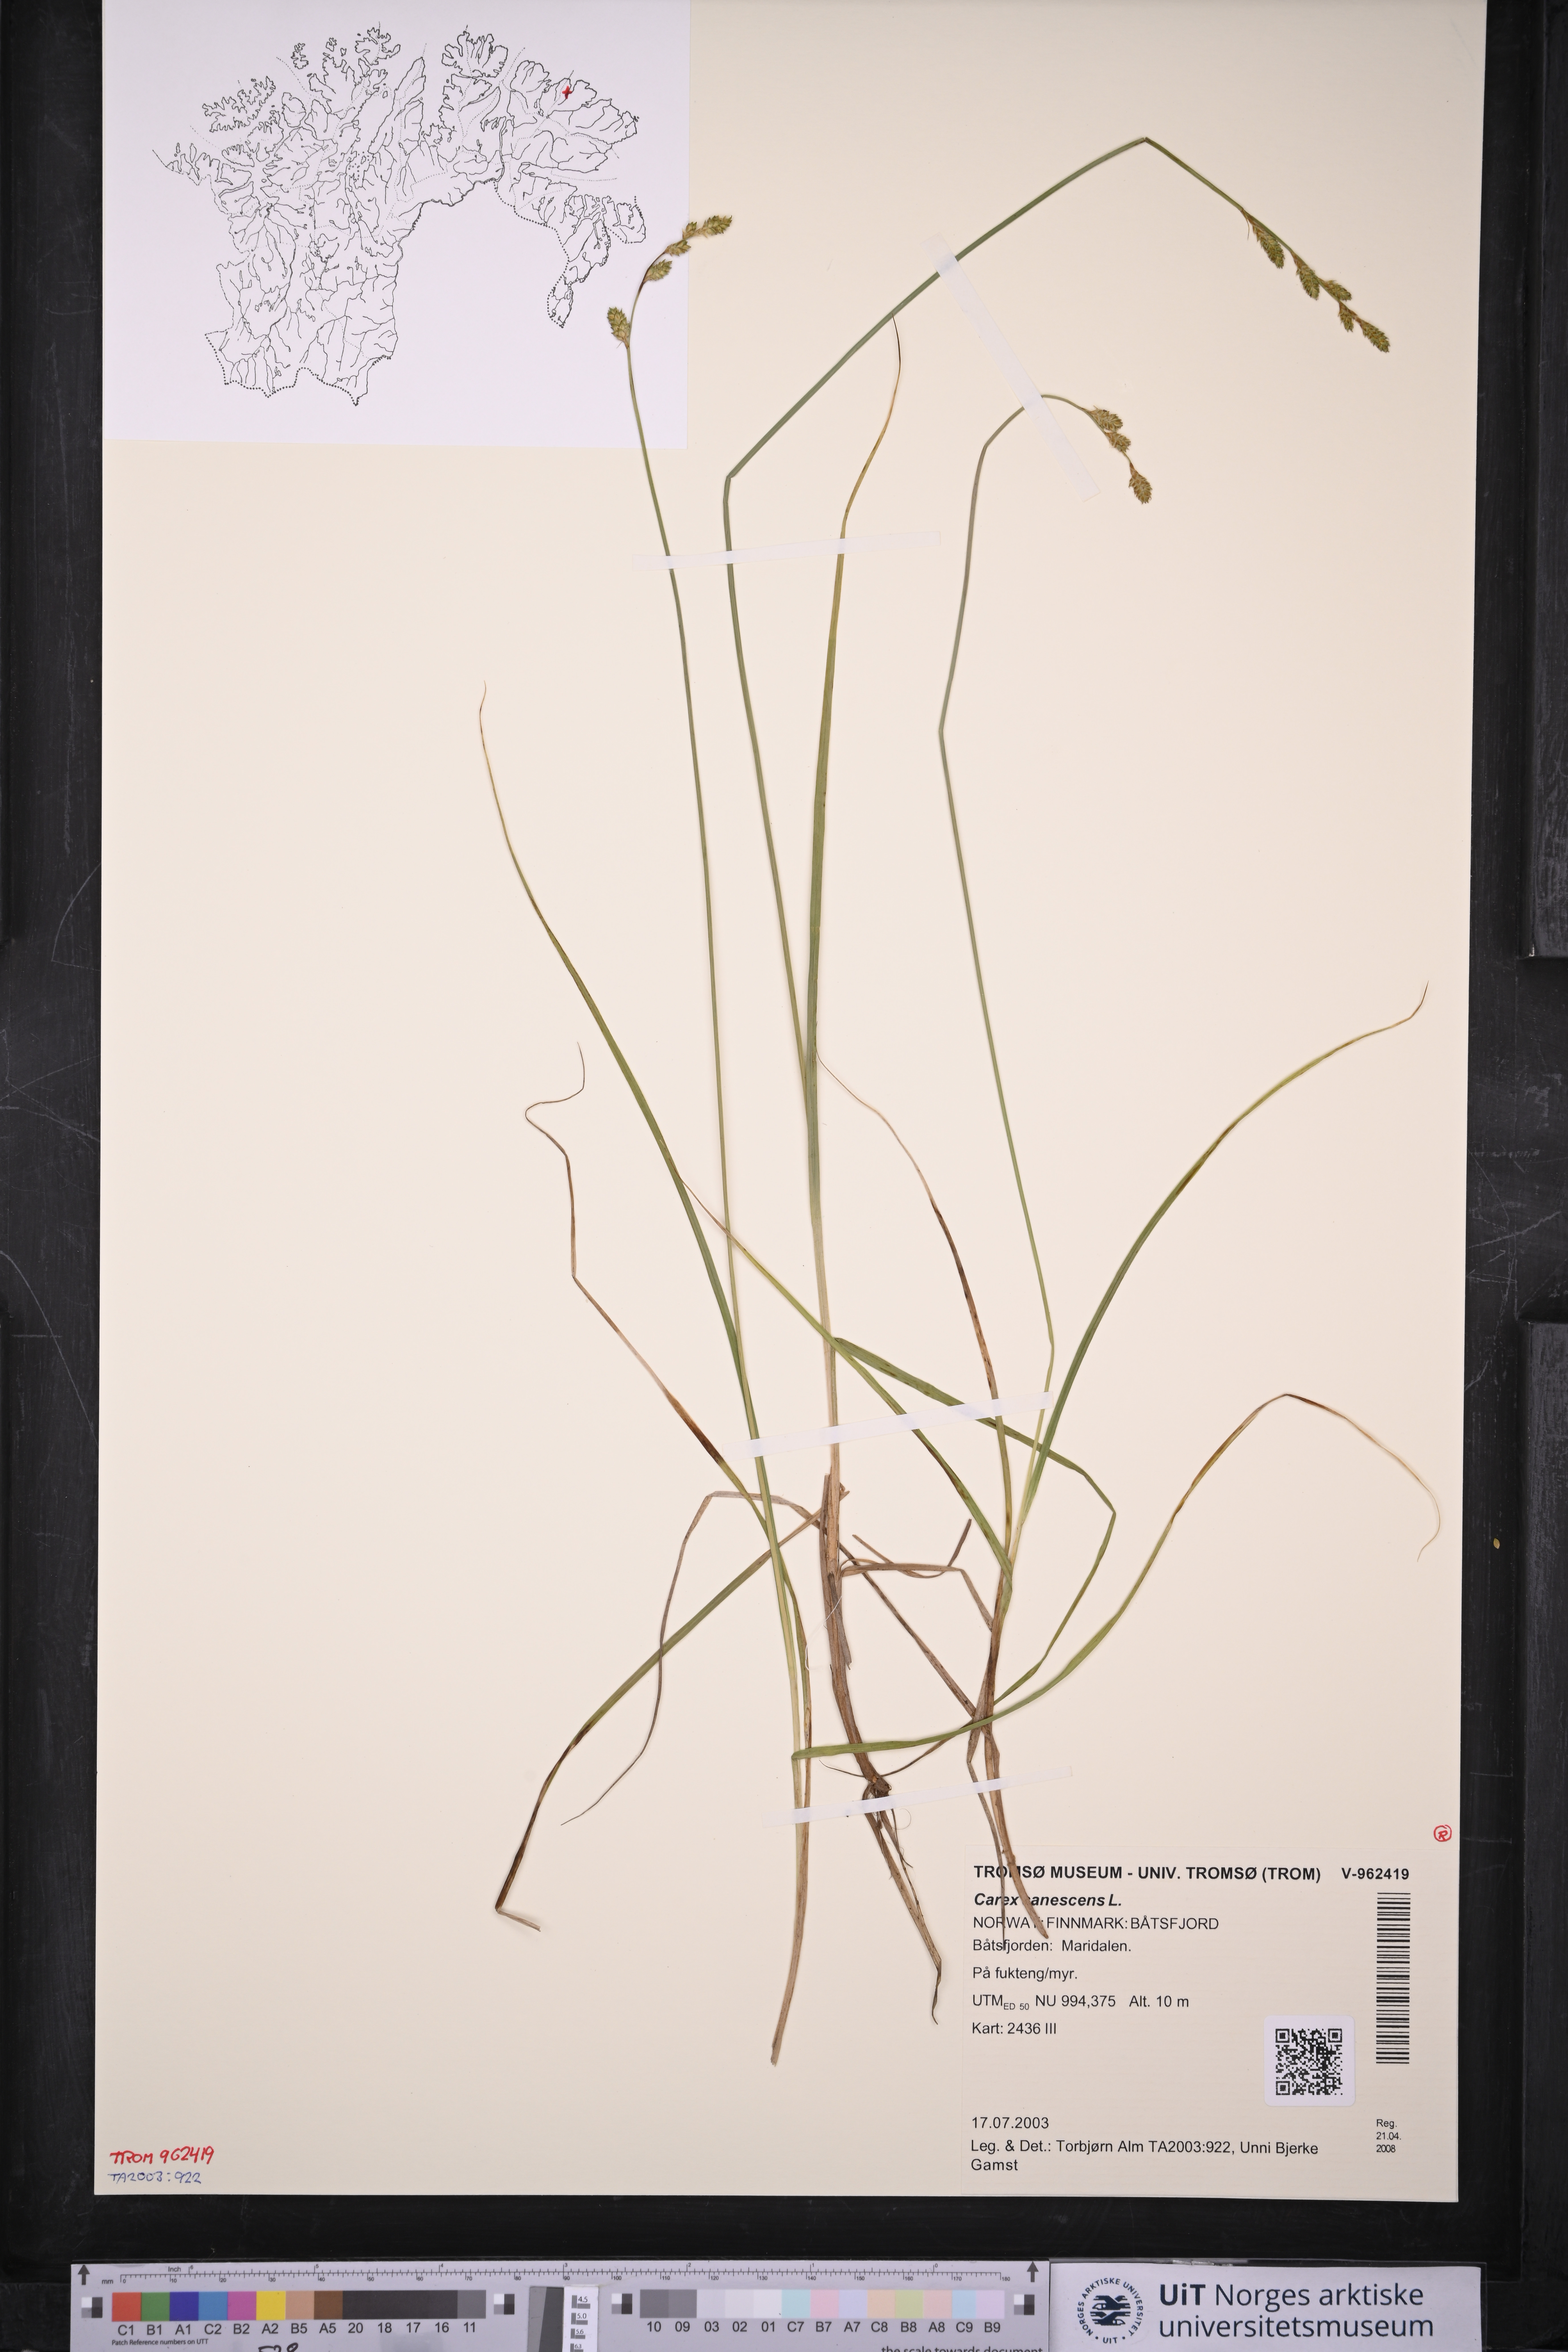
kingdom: Plantae
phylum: Tracheophyta
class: Liliopsida
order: Poales
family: Cyperaceae
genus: Carex
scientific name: Carex canescens
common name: White sedge
